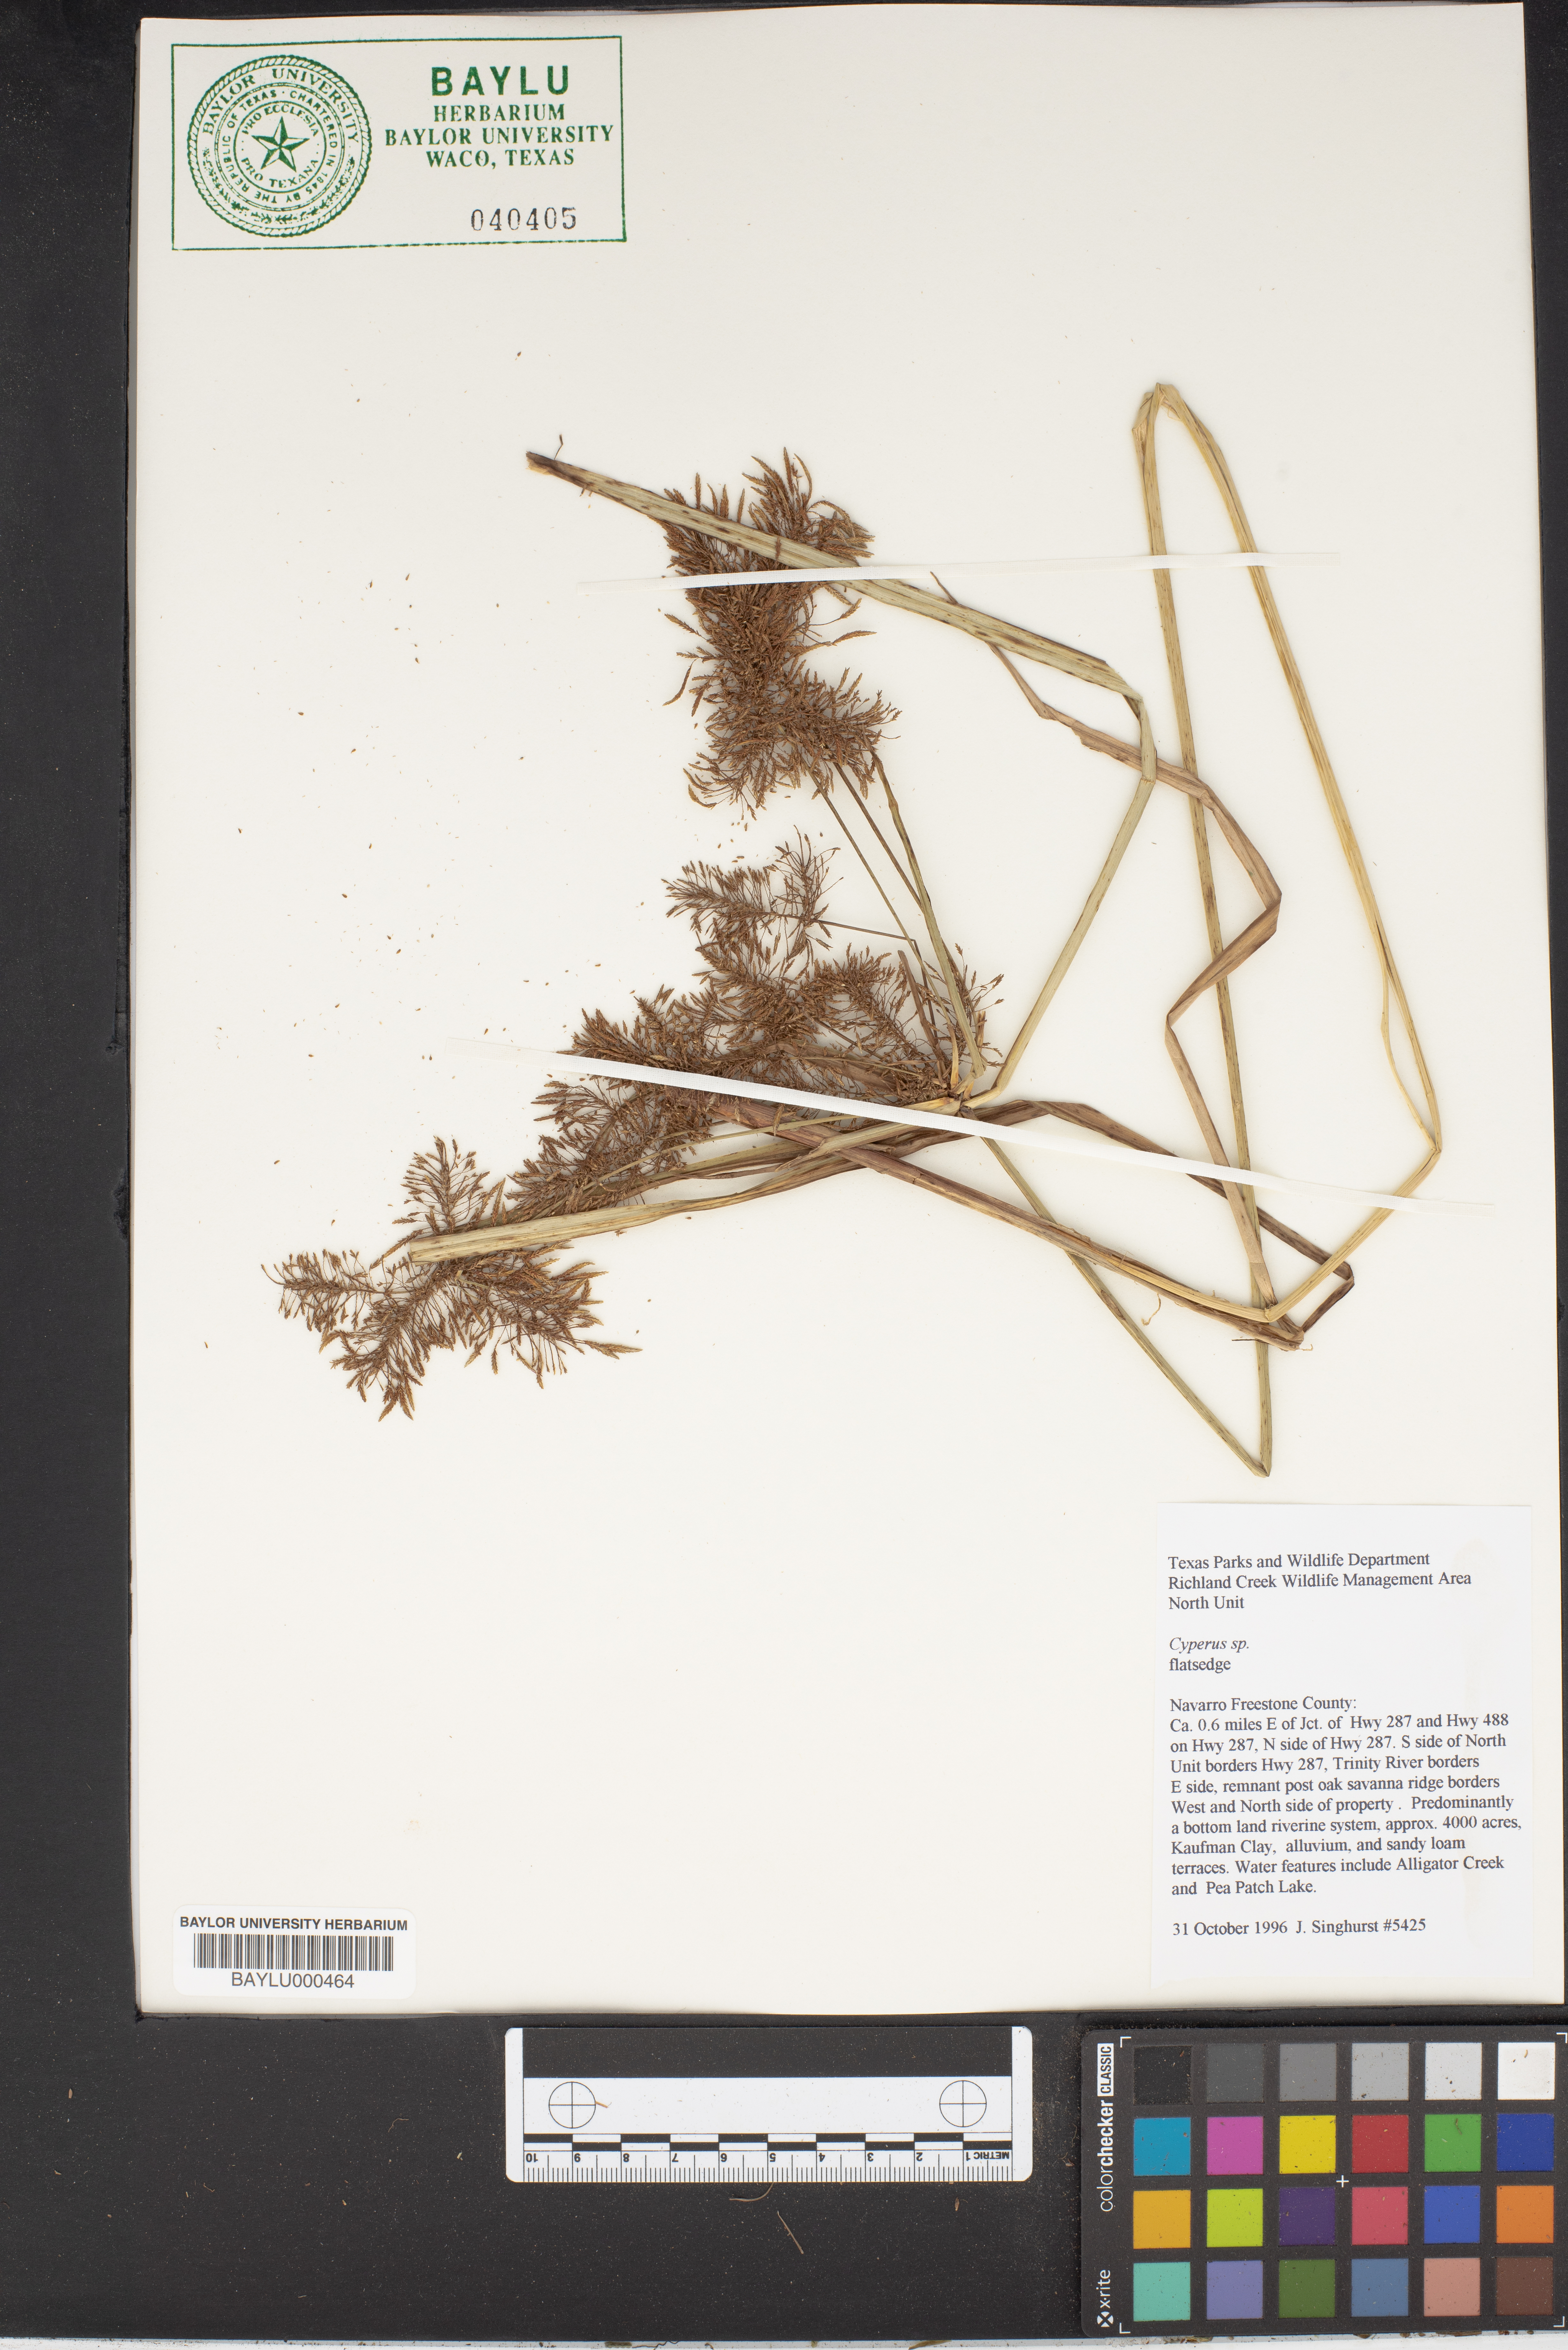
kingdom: Plantae
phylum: Tracheophyta
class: Liliopsida
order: Poales
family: Cyperaceae
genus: Cyperus
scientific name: Cyperus
